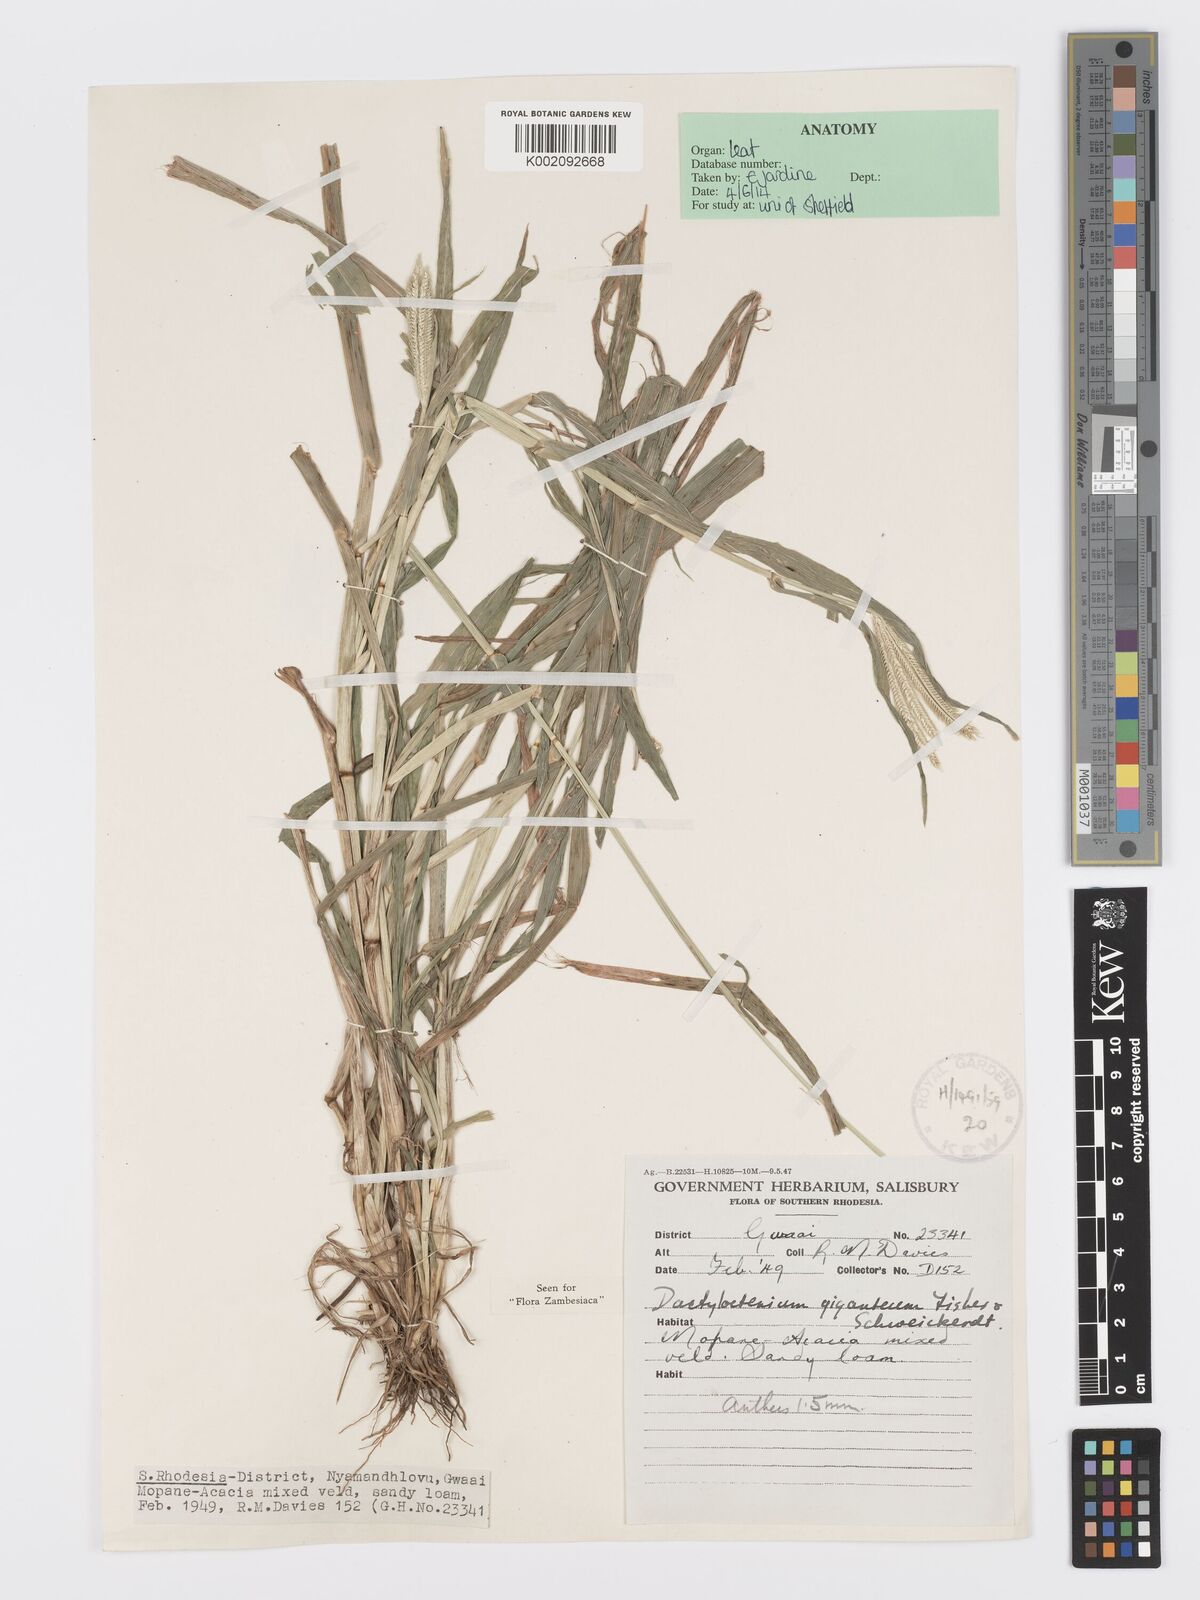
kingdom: Plantae
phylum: Tracheophyta
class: Liliopsida
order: Poales
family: Poaceae
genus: Dactyloctenium
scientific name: Dactyloctenium giganteum
